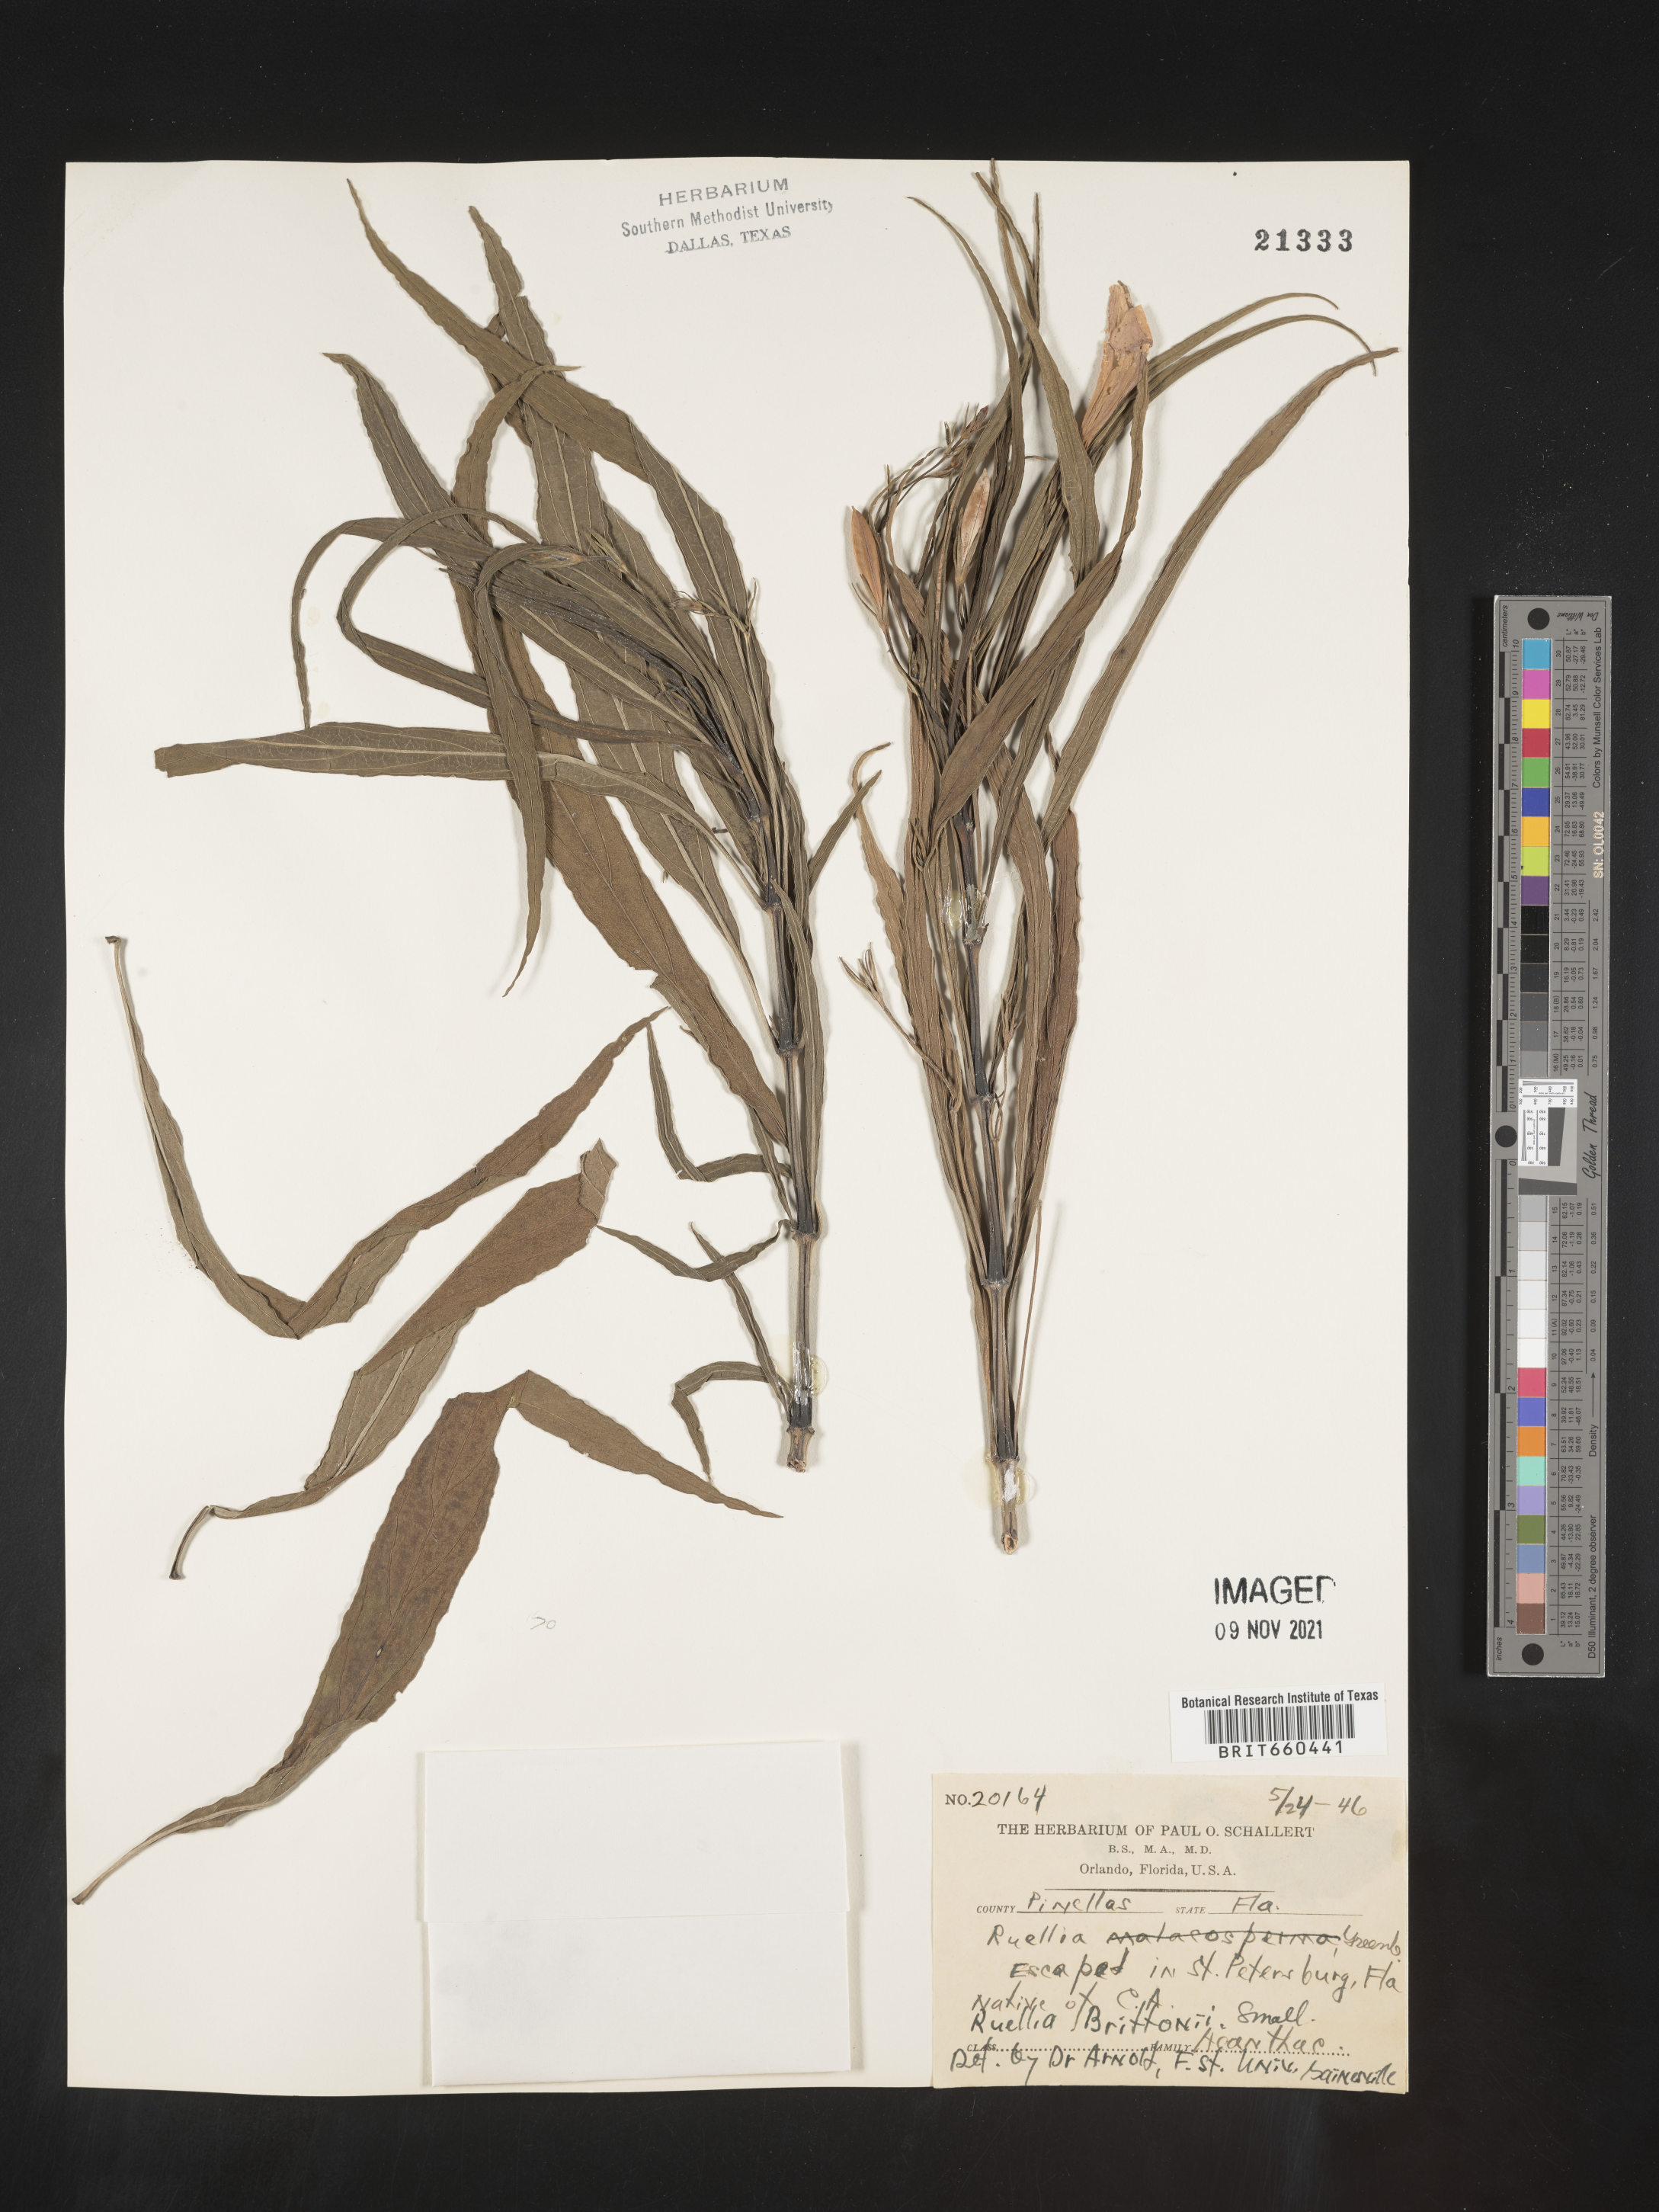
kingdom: Plantae
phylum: Tracheophyta
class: Magnoliopsida
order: Lamiales
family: Acanthaceae
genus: Ruellia
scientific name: Ruellia simplex
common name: Softseed wild petunia
